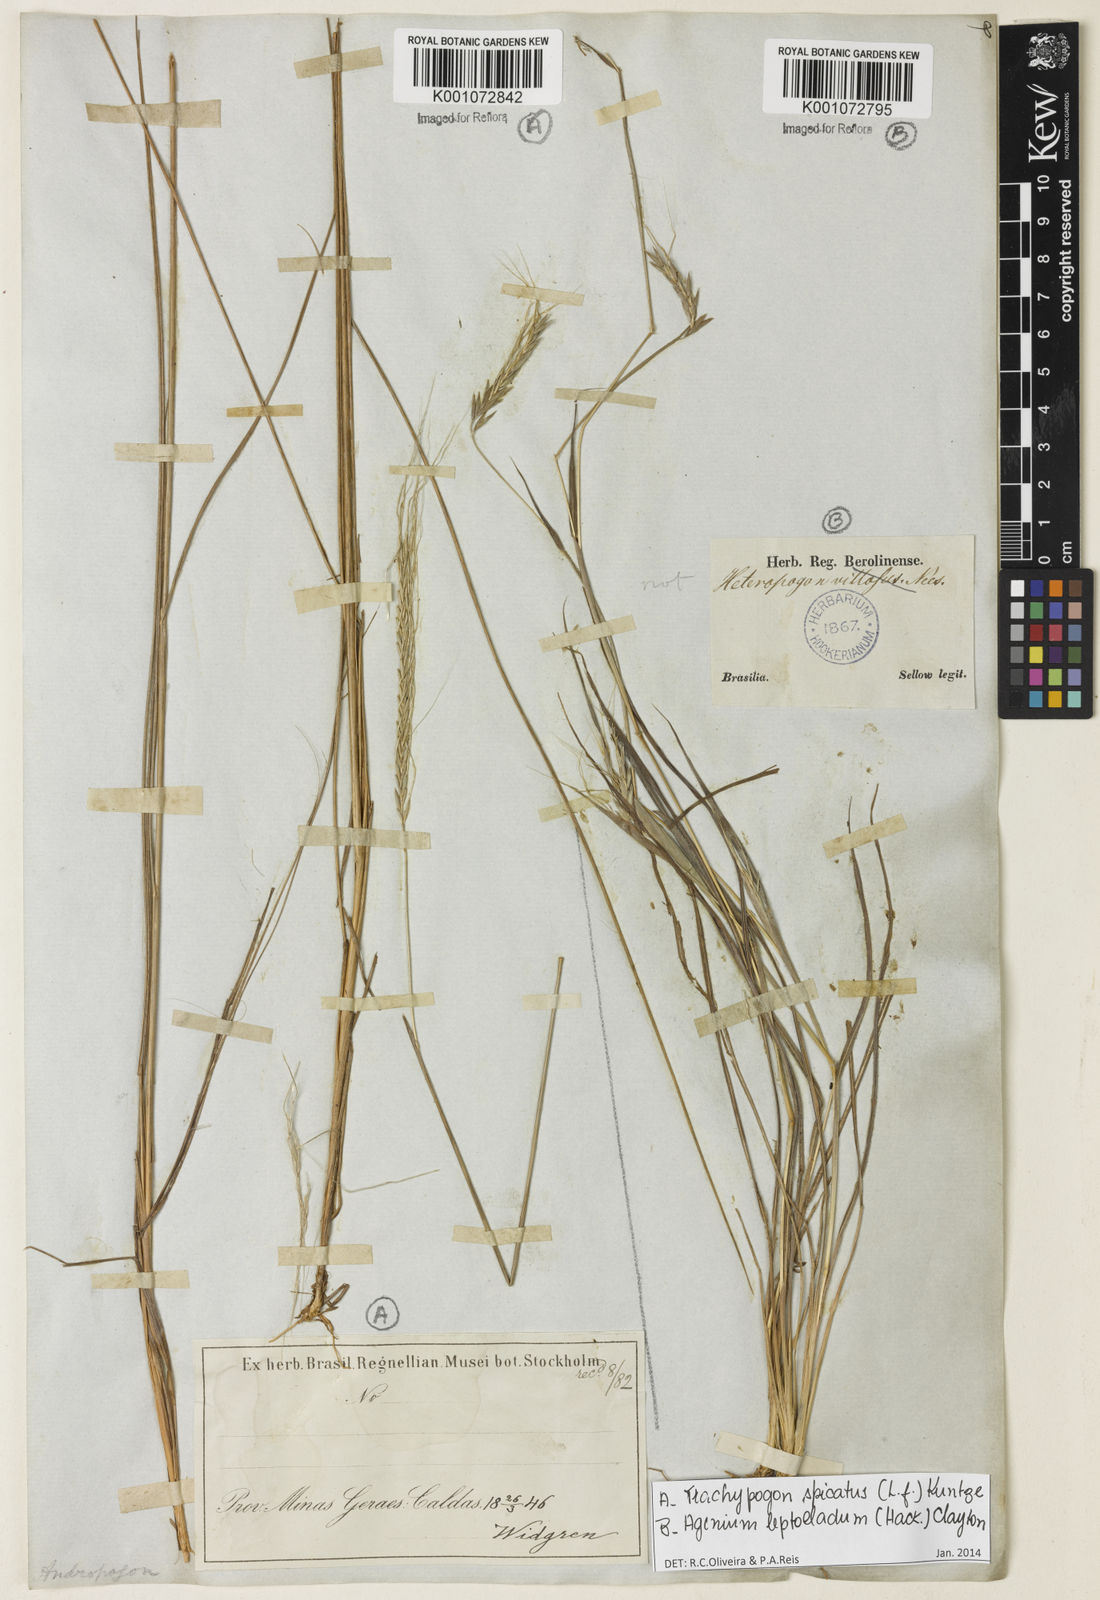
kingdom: Plantae
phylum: Tracheophyta
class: Liliopsida
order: Poales
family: Poaceae
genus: Trachypogon
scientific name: Trachypogon spicatus
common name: Crinkle-awn
